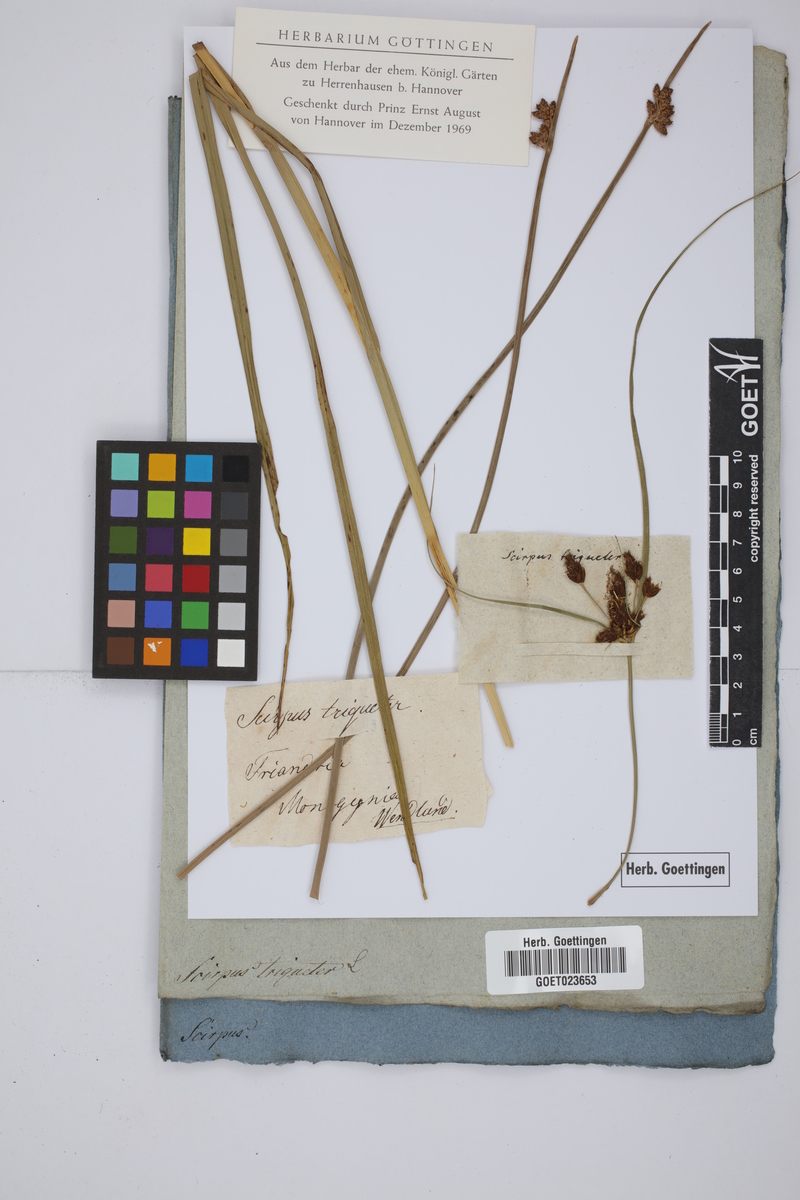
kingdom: Plantae
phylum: Tracheophyta
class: Liliopsida
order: Poales
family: Cyperaceae
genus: Schoenoplectus
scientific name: Schoenoplectus triqueter
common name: Triangular club-rush
